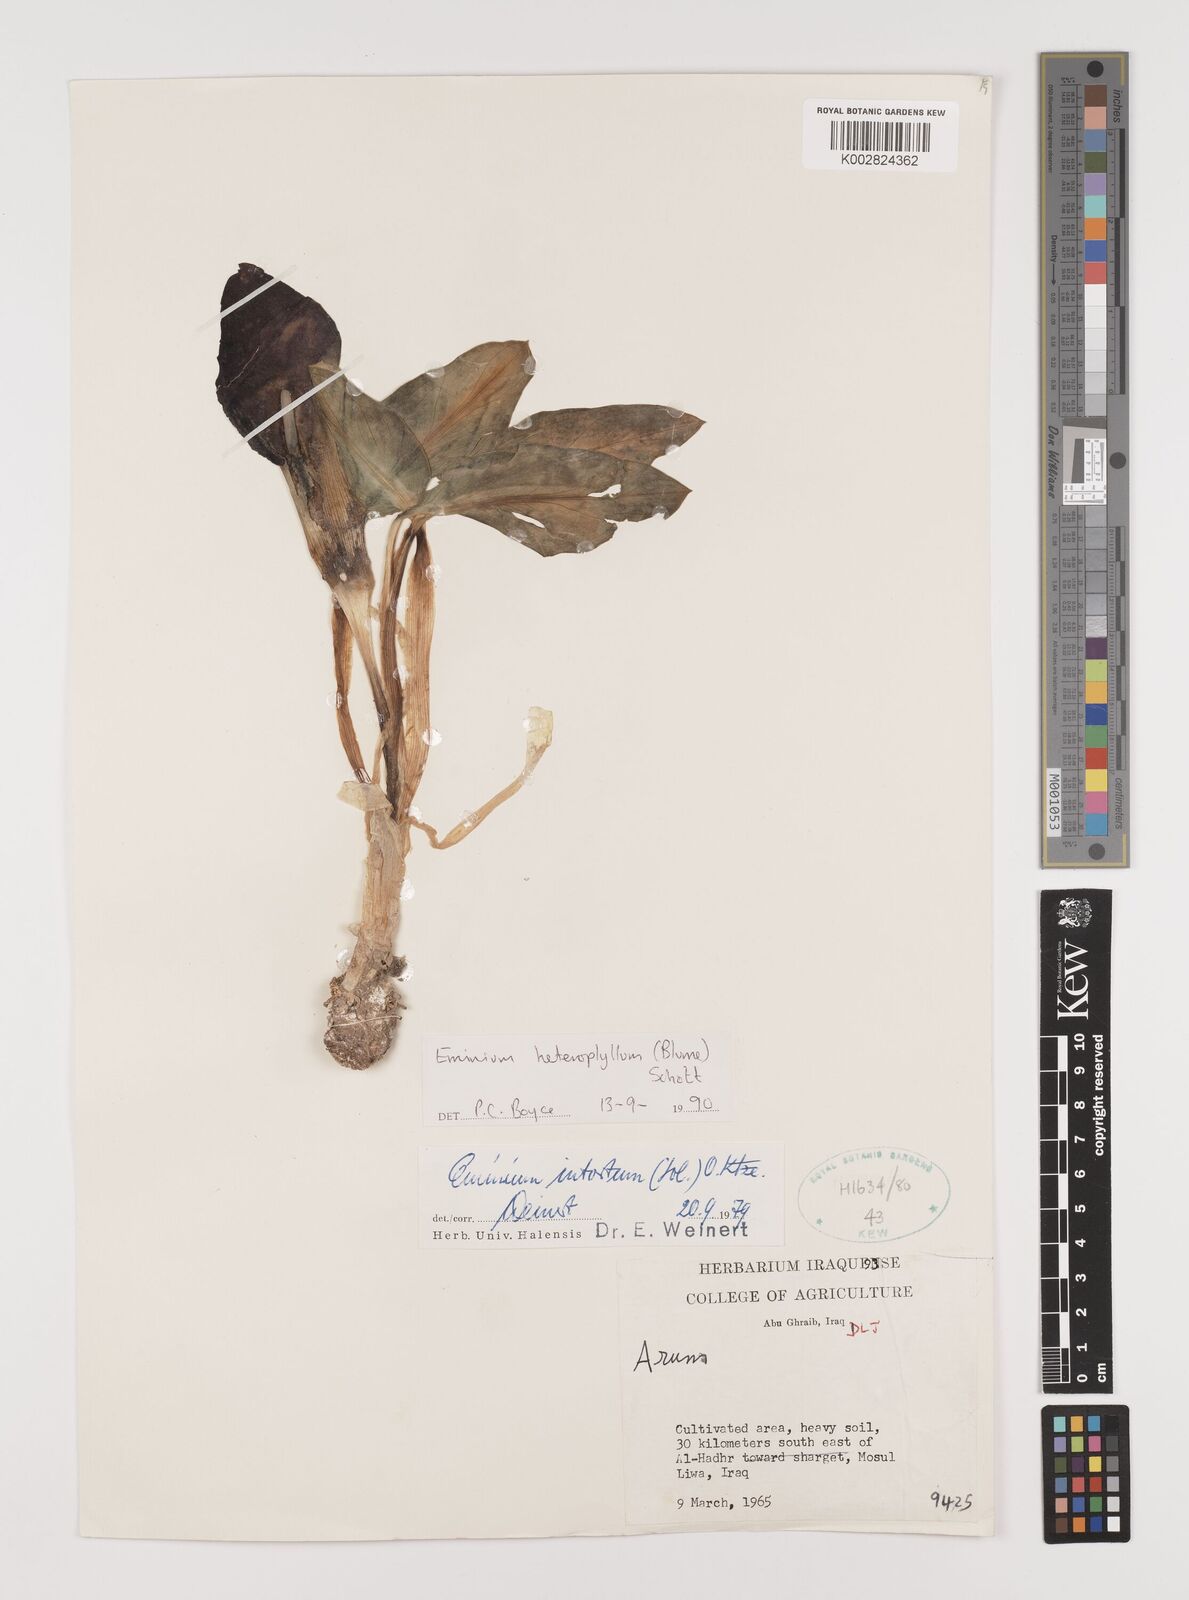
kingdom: Plantae
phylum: Tracheophyta
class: Liliopsida
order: Alismatales
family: Araceae
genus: Eminium
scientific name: Eminium rauwolffii
